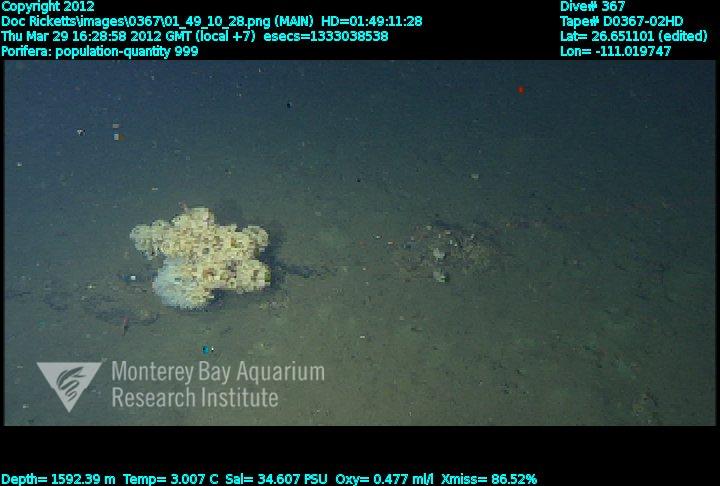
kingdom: Animalia
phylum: Porifera
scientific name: Porifera
